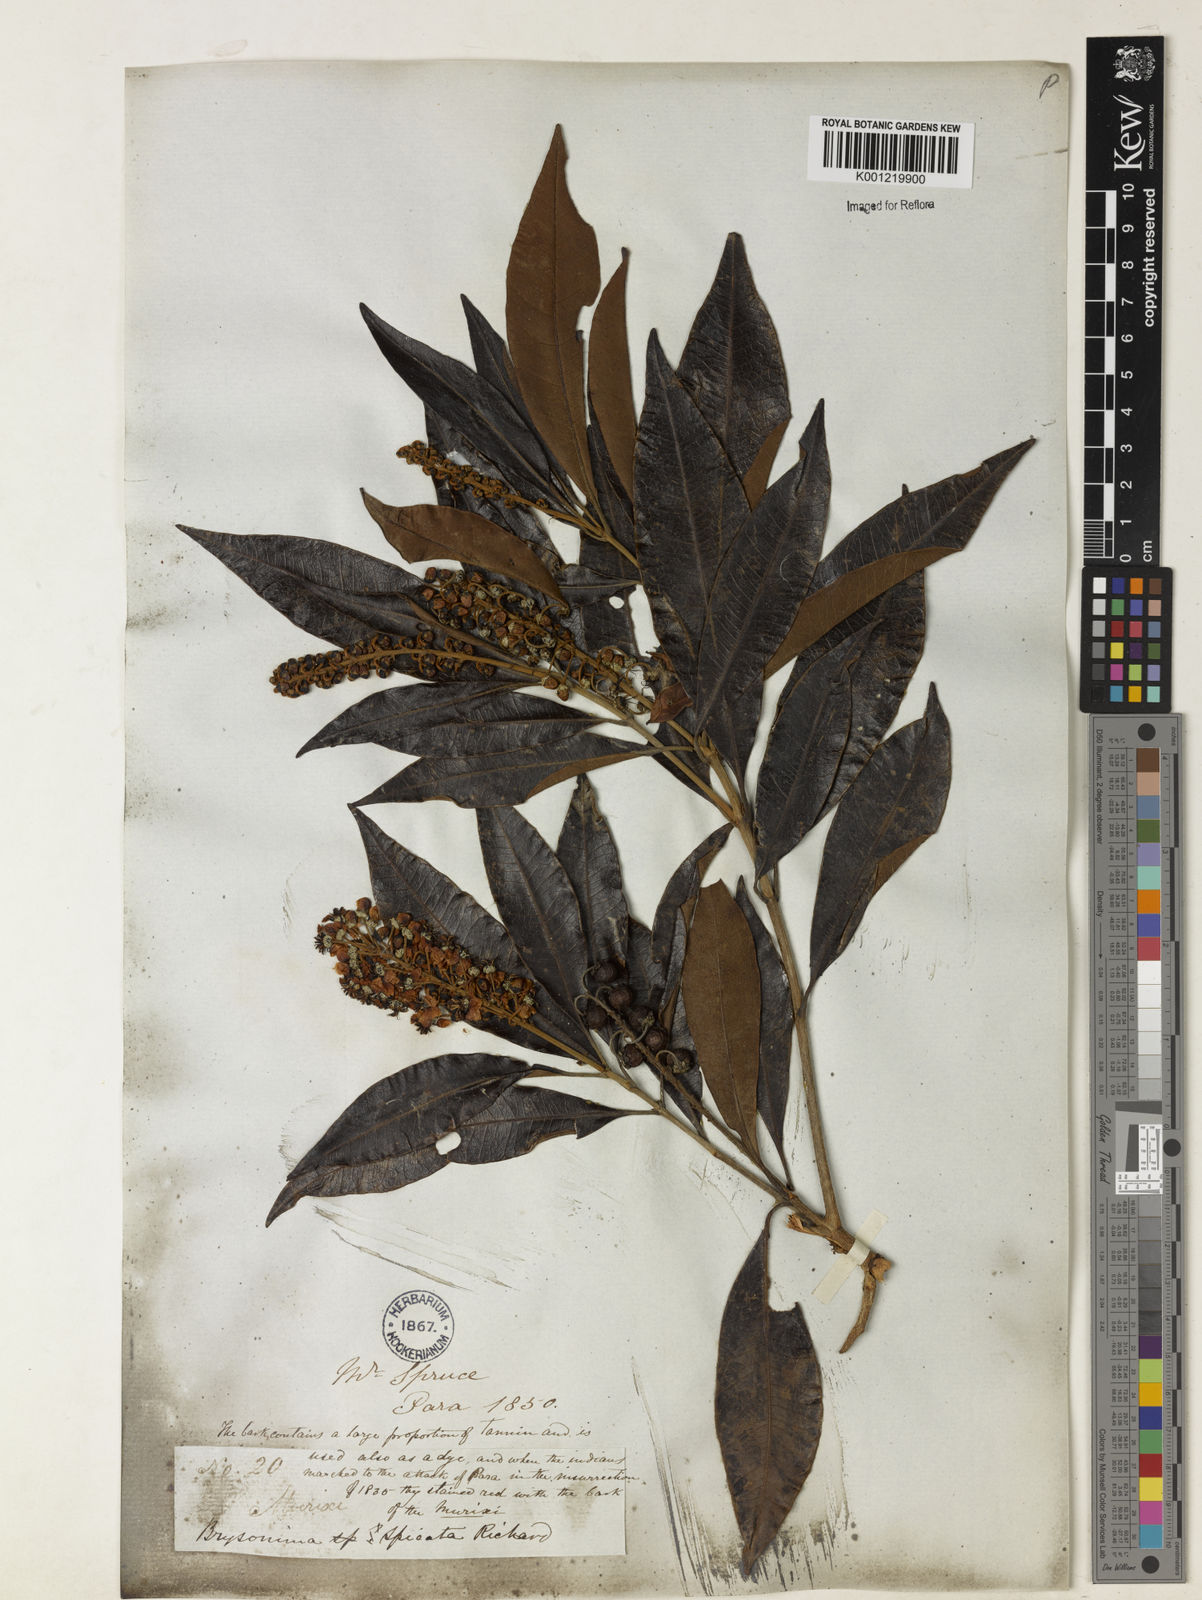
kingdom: Plantae
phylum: Tracheophyta
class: Magnoliopsida
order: Malpighiales
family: Malpighiaceae
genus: Byrsonima
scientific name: Byrsonima
